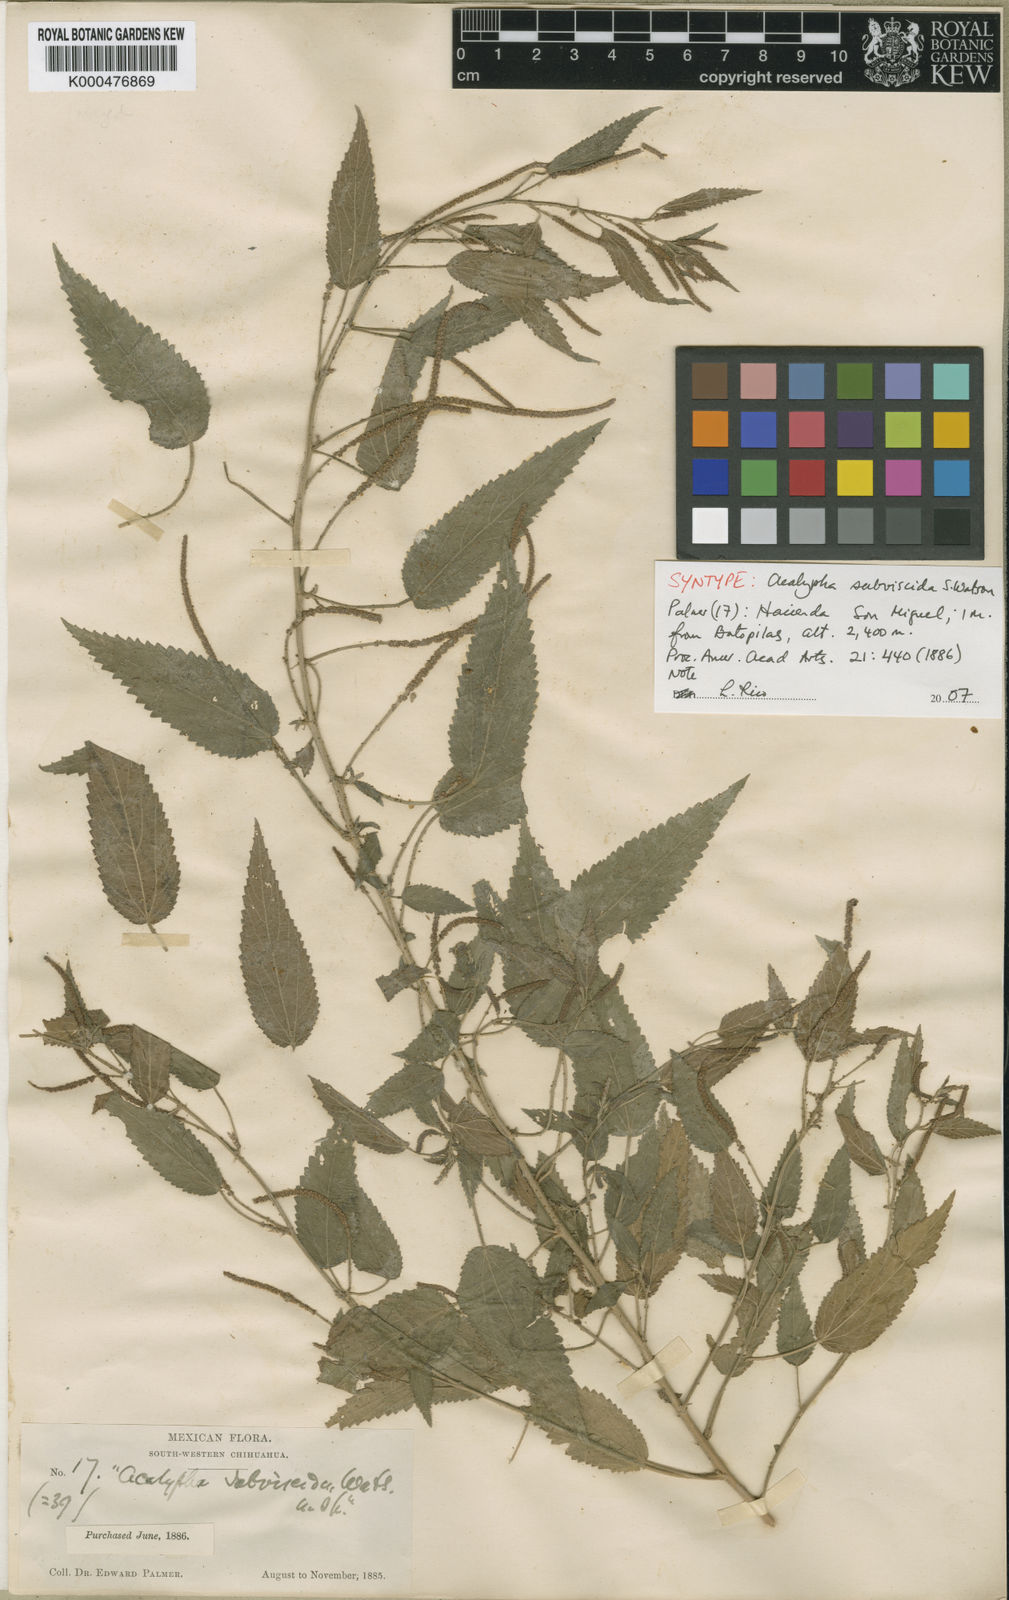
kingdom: Plantae
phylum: Tracheophyta
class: Magnoliopsida
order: Malpighiales
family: Euphorbiaceae
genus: Acalypha
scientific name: Acalypha subviscida
